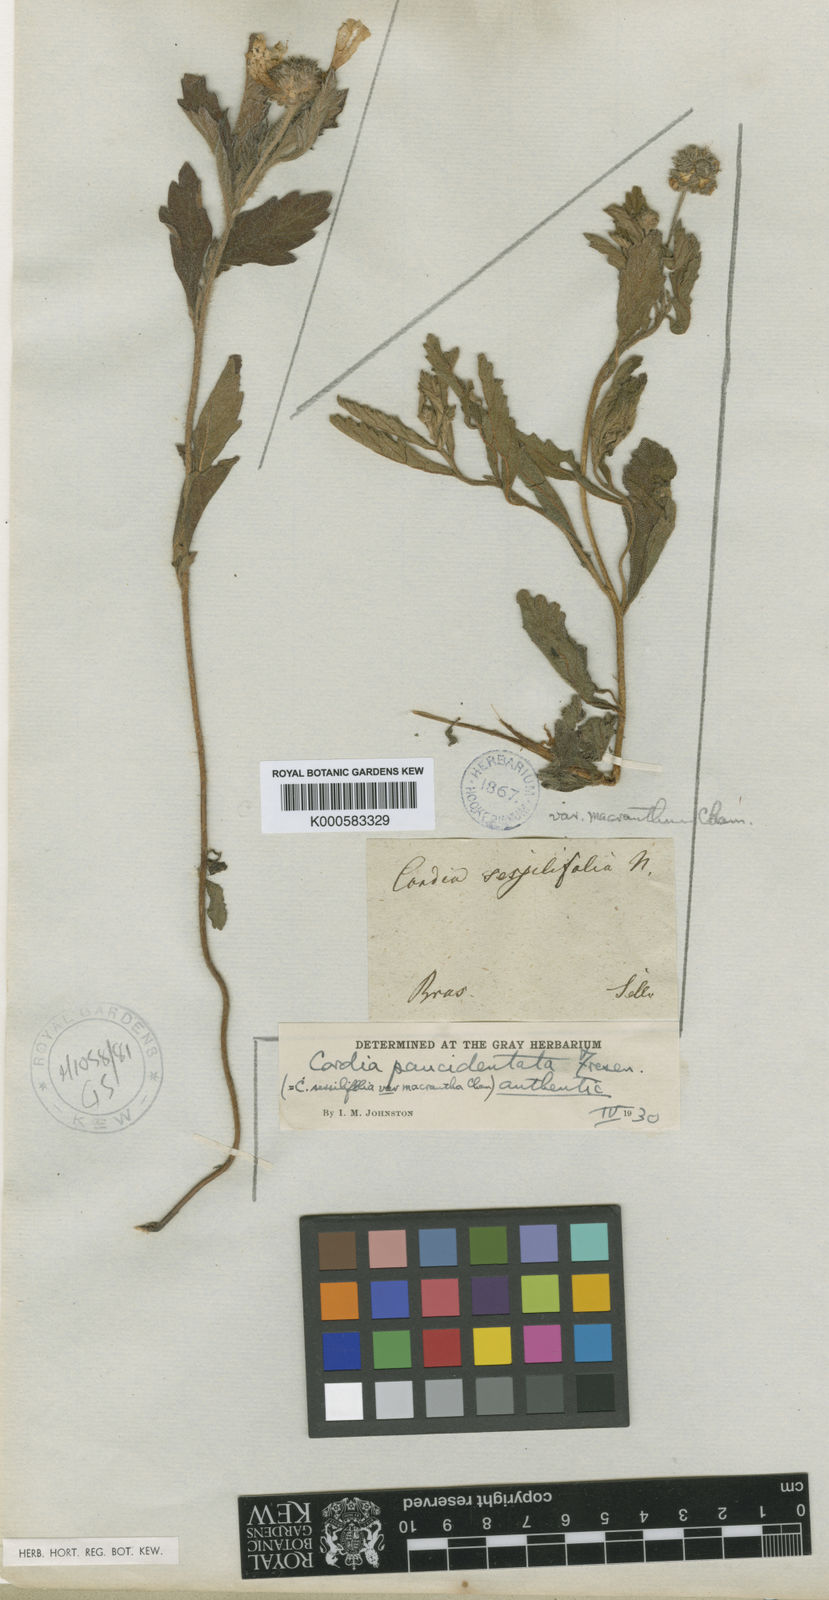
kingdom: Plantae
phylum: Tracheophyta
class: Magnoliopsida
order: Boraginales
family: Cordiaceae
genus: Varronia
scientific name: Varronia paucidentata
